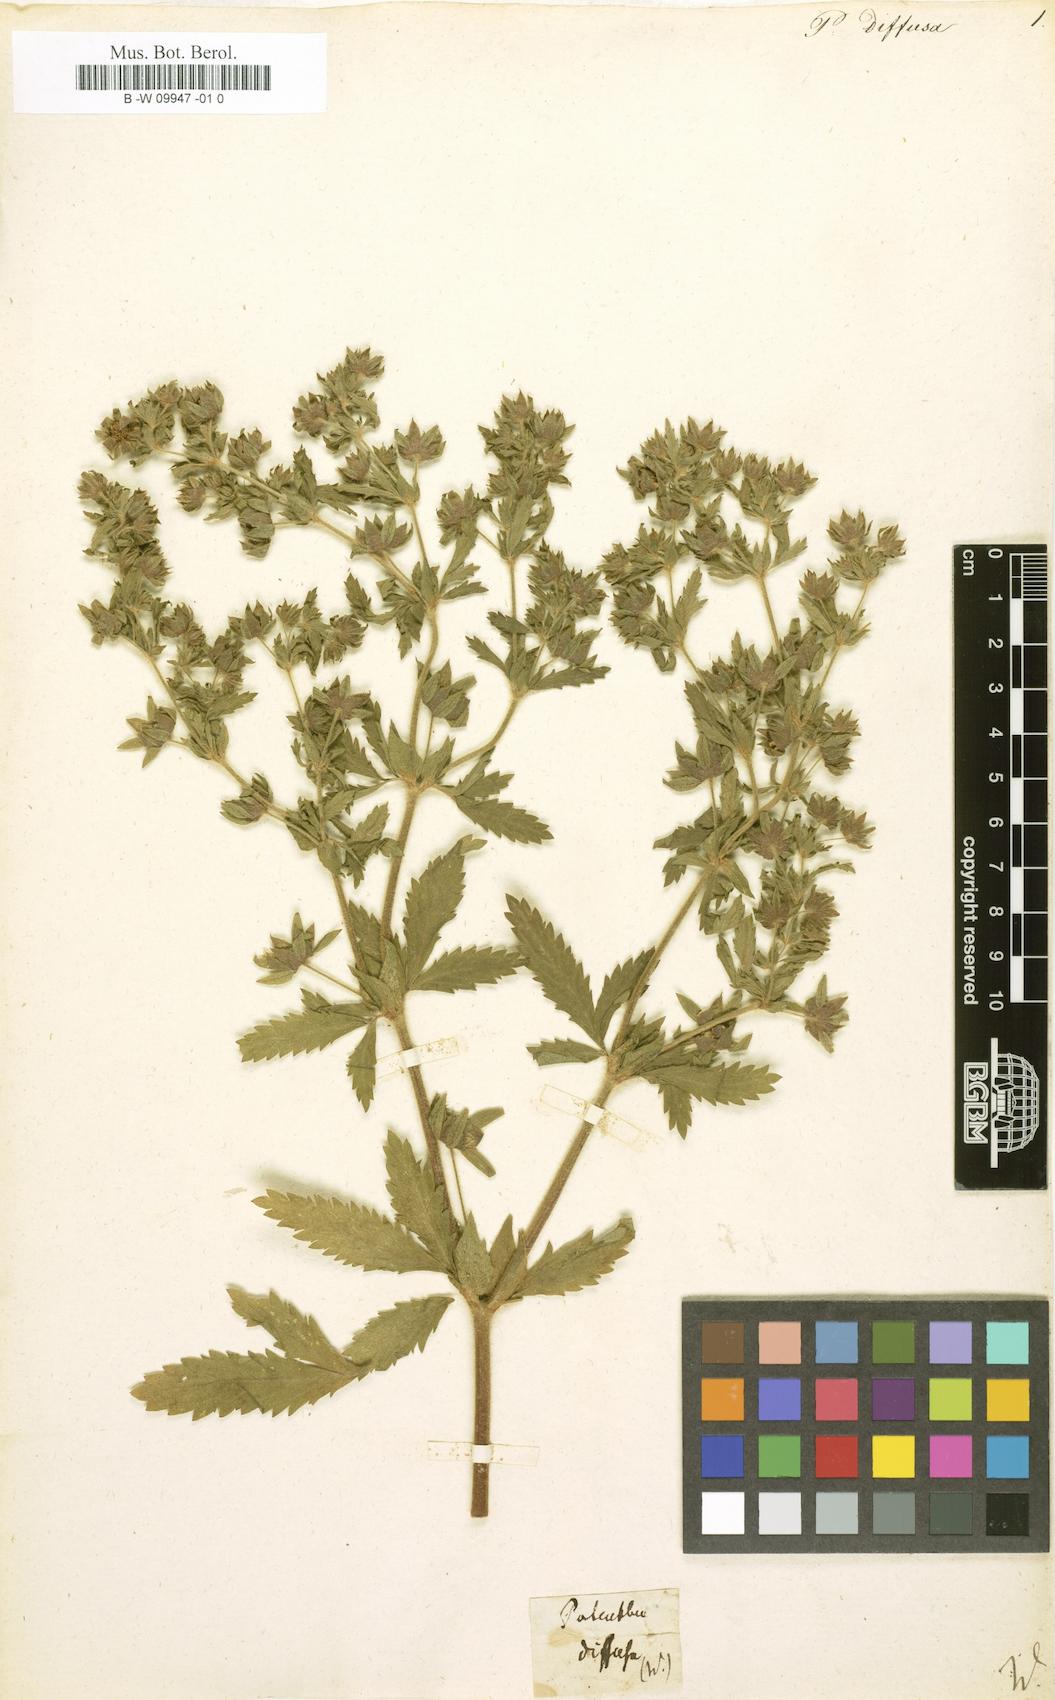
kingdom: Plantae
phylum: Tracheophyta
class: Magnoliopsida
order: Rosales
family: Rosaceae
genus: Potentilla
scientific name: Potentilla
